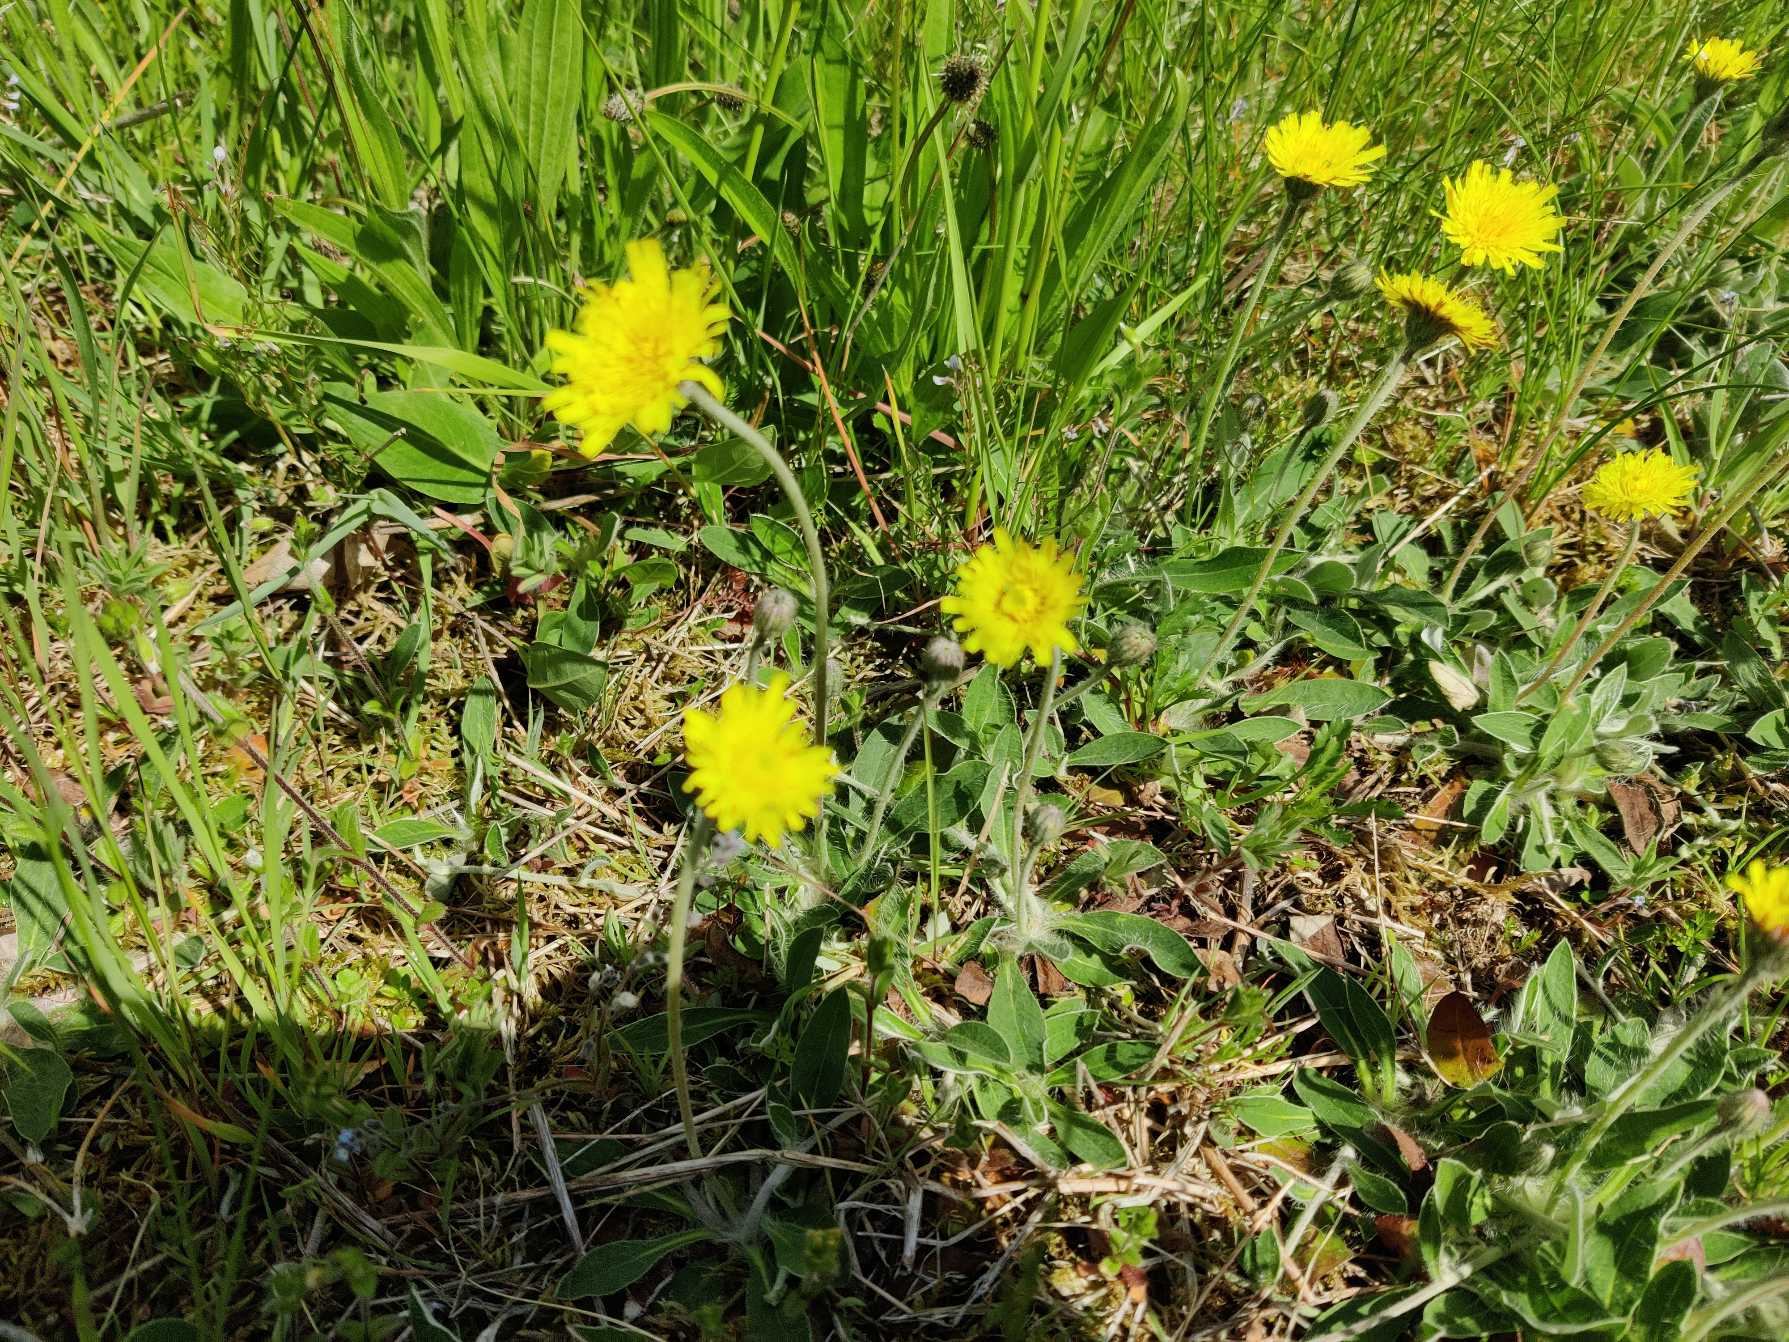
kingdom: Plantae
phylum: Tracheophyta
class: Magnoliopsida
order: Asterales
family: Asteraceae
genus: Pilosella
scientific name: Pilosella officinarum
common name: Håret høgeurt
